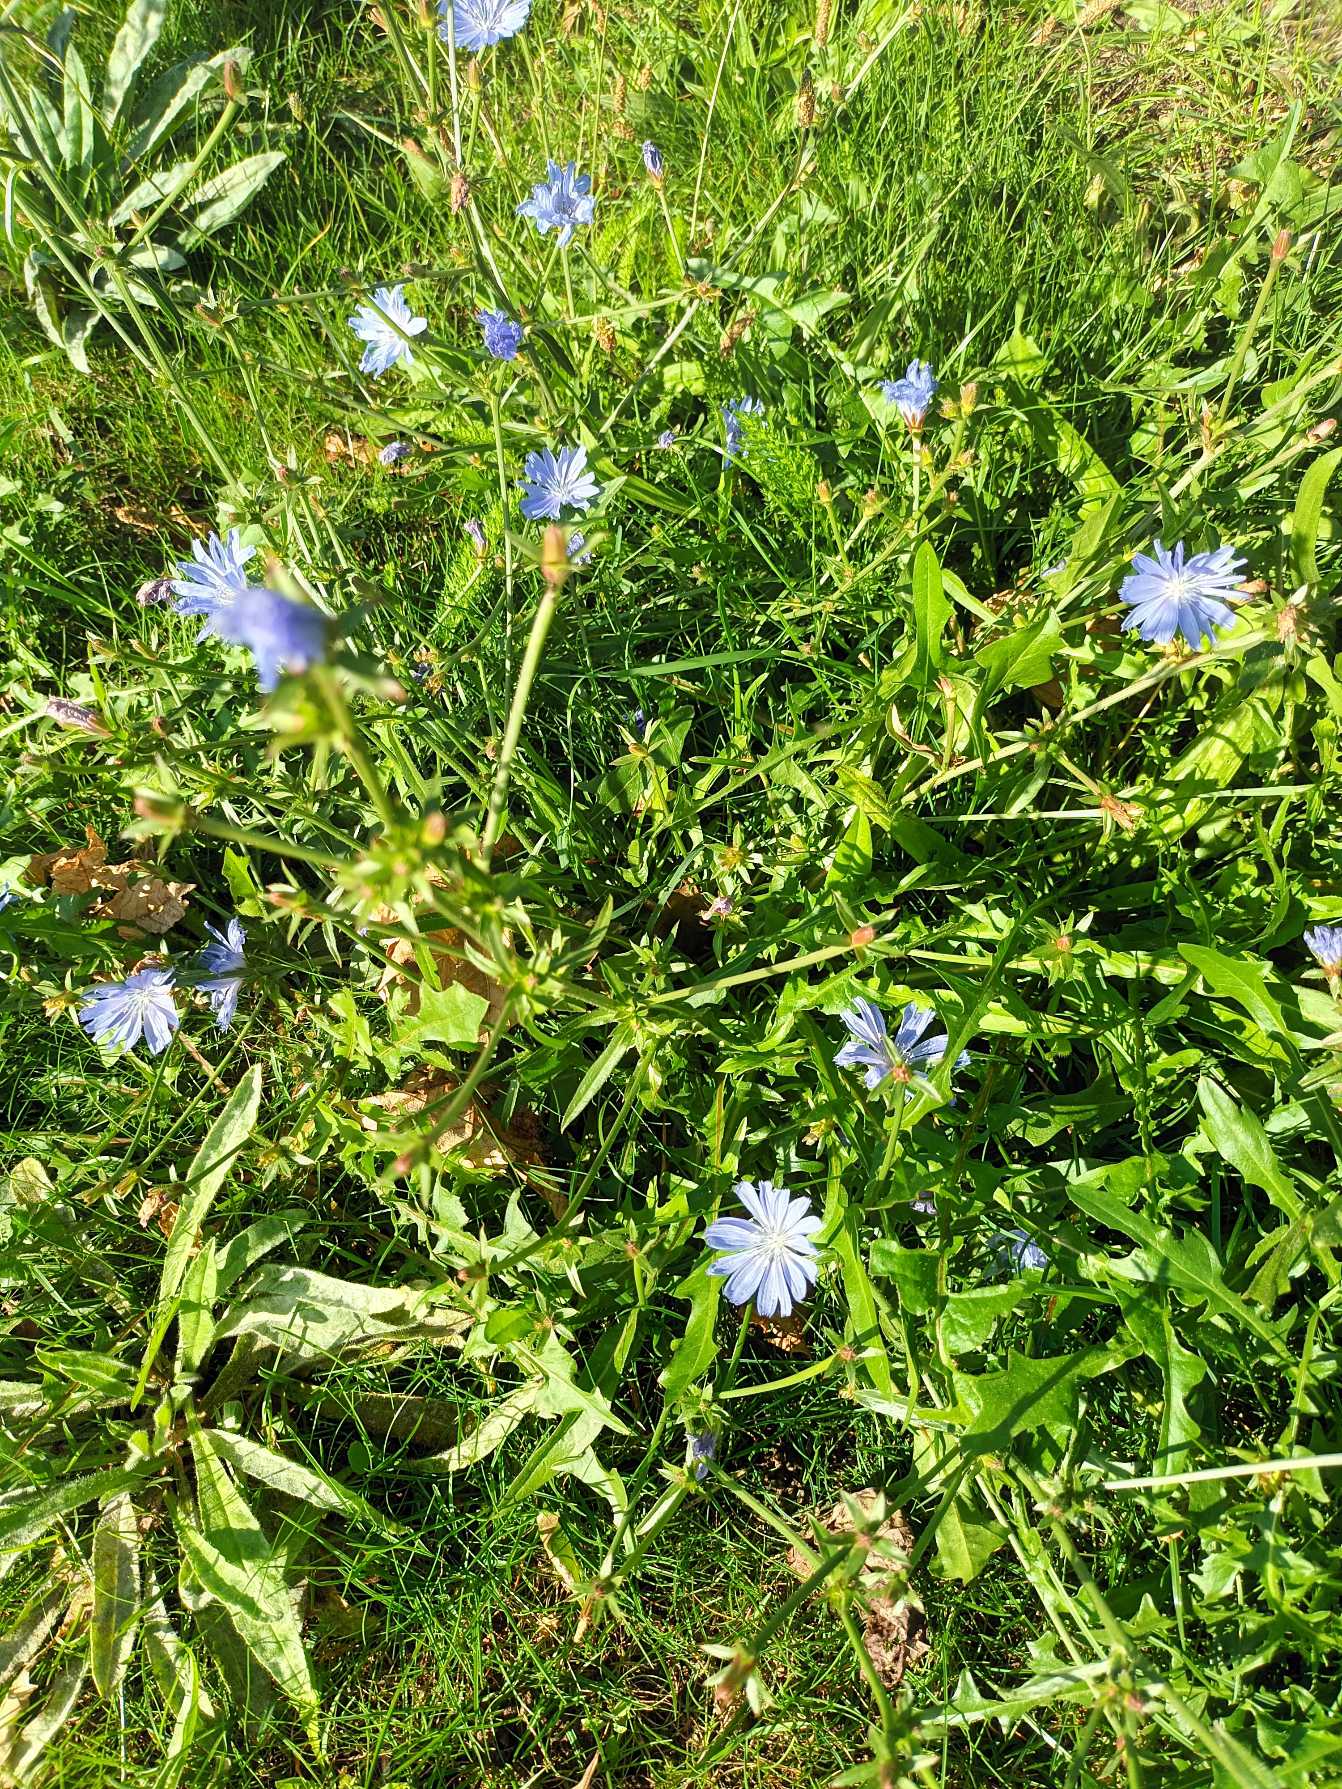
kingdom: Plantae
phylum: Tracheophyta
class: Magnoliopsida
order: Asterales
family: Asteraceae
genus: Cichorium
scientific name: Cichorium intybus
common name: Cikorie
